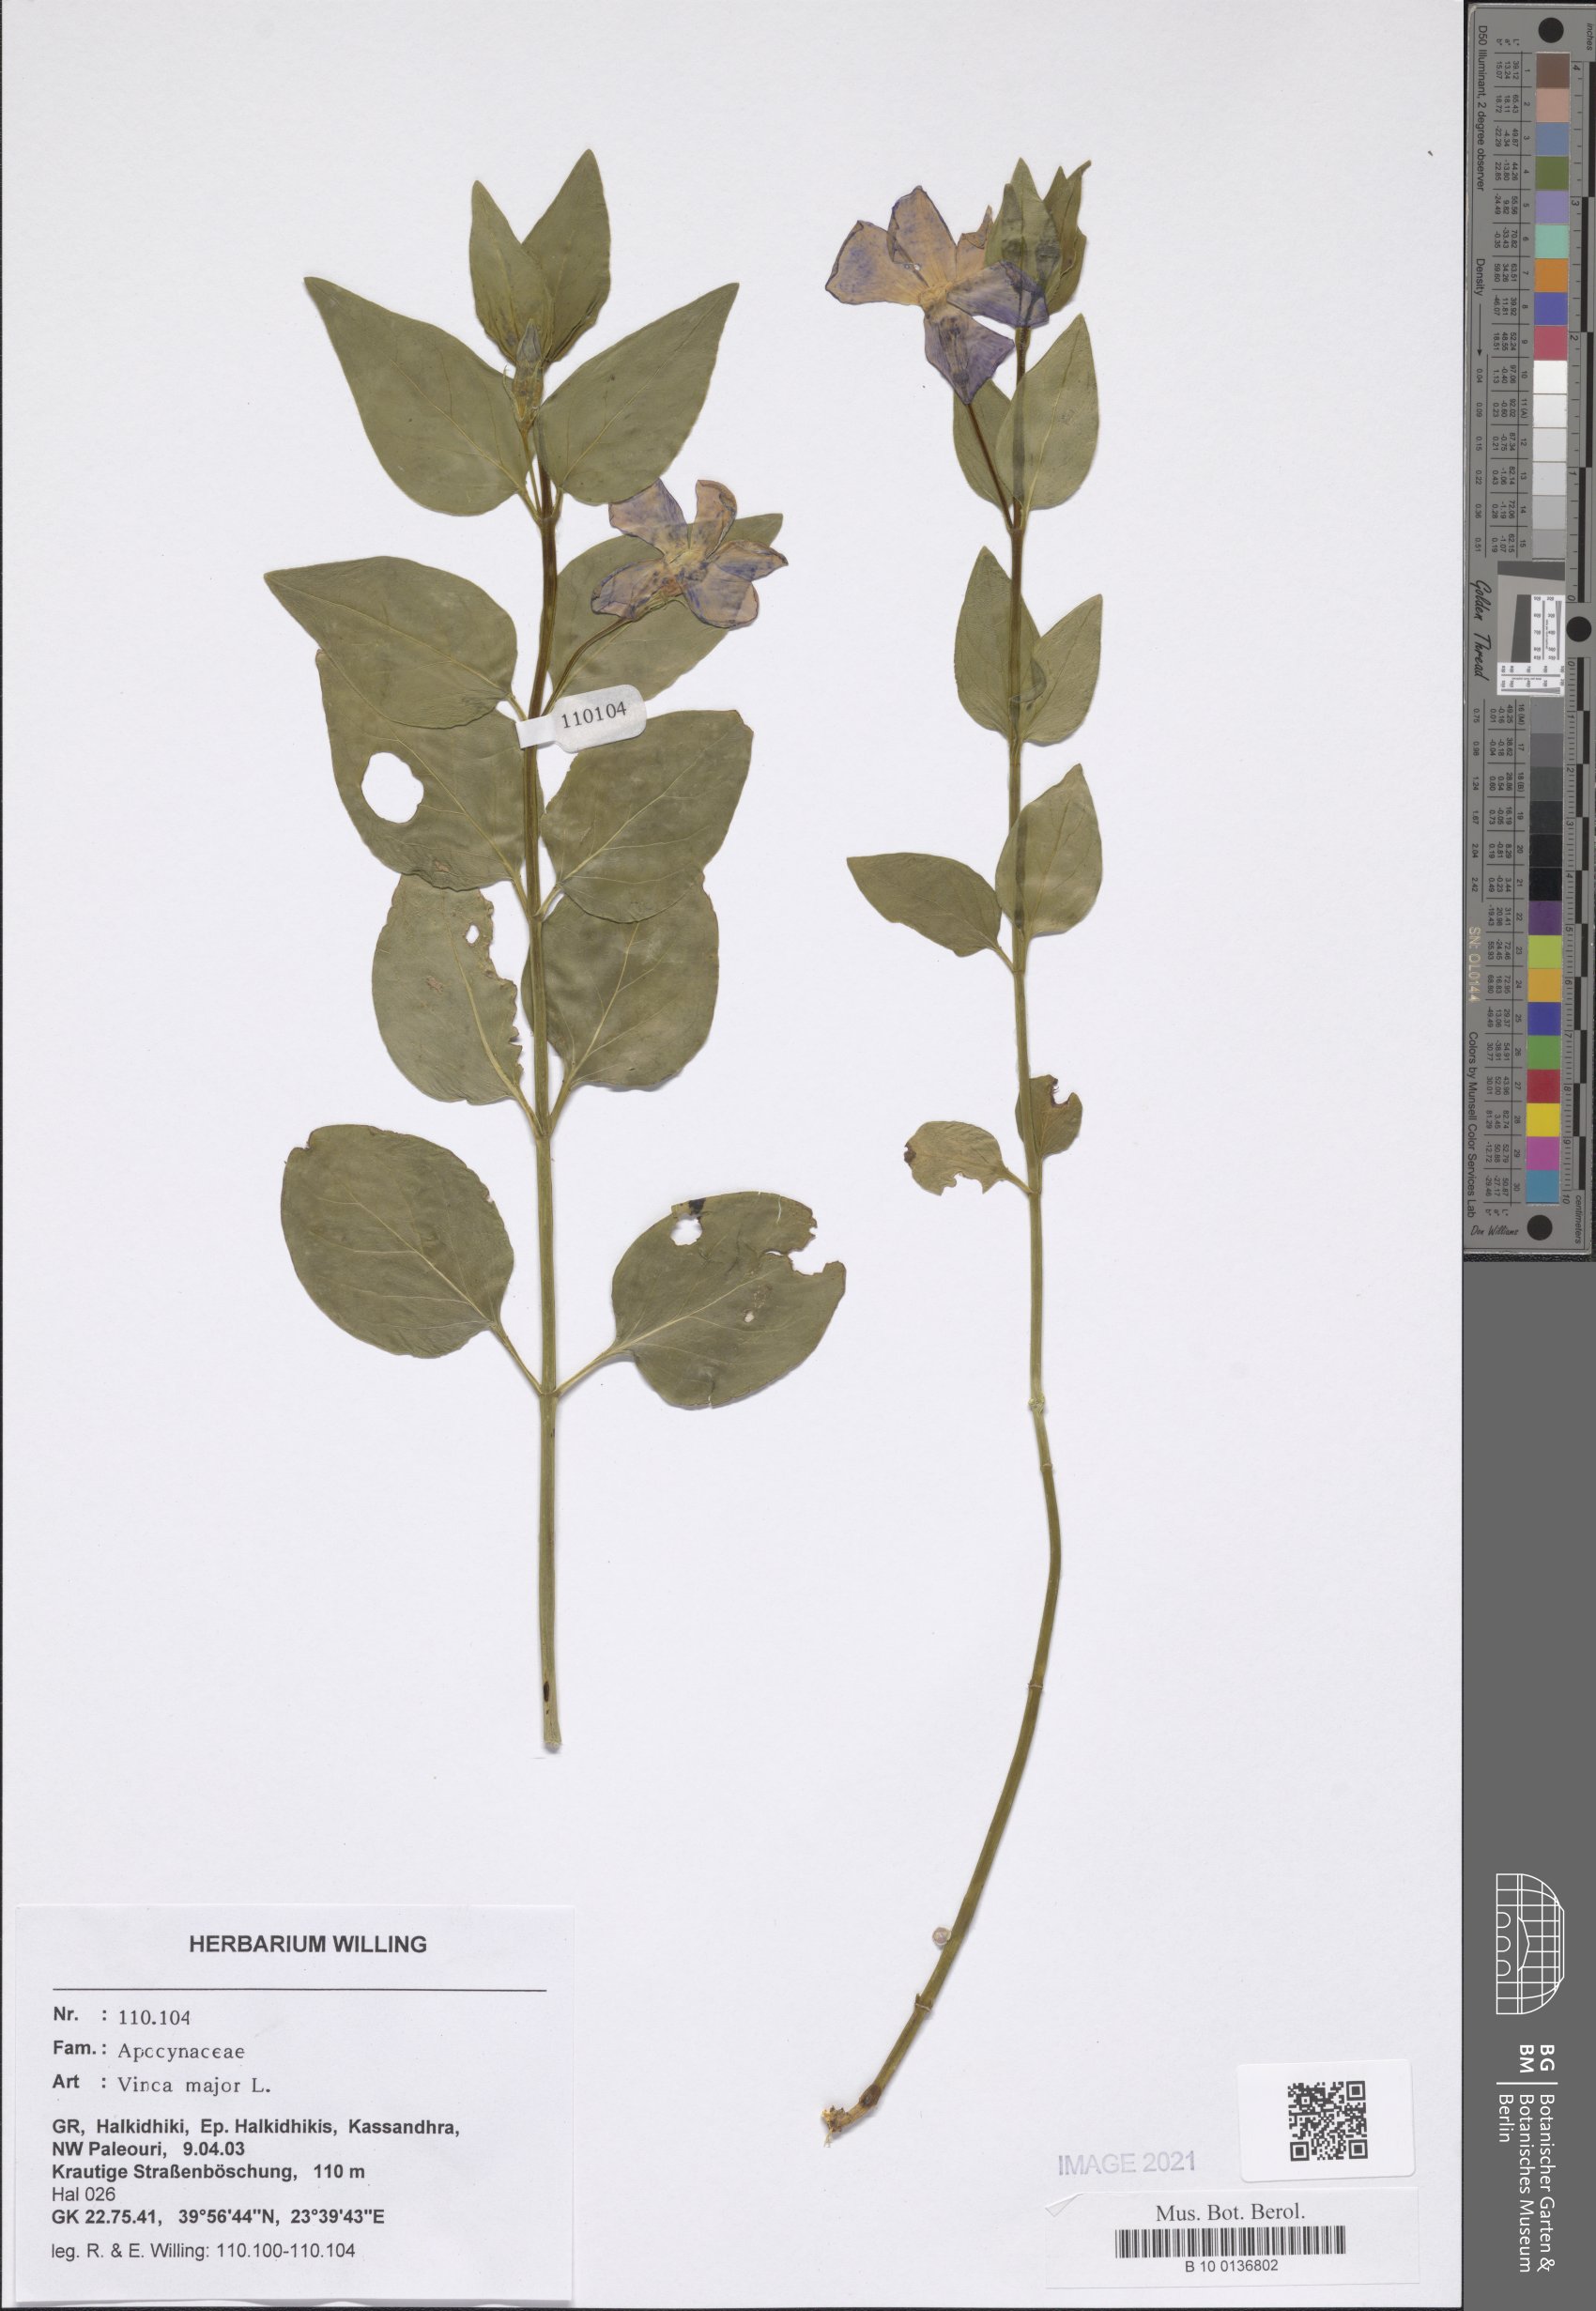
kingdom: Plantae
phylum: Tracheophyta
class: Magnoliopsida
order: Gentianales
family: Apocynaceae
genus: Vinca
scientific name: Vinca major
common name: Greater periwinkle
